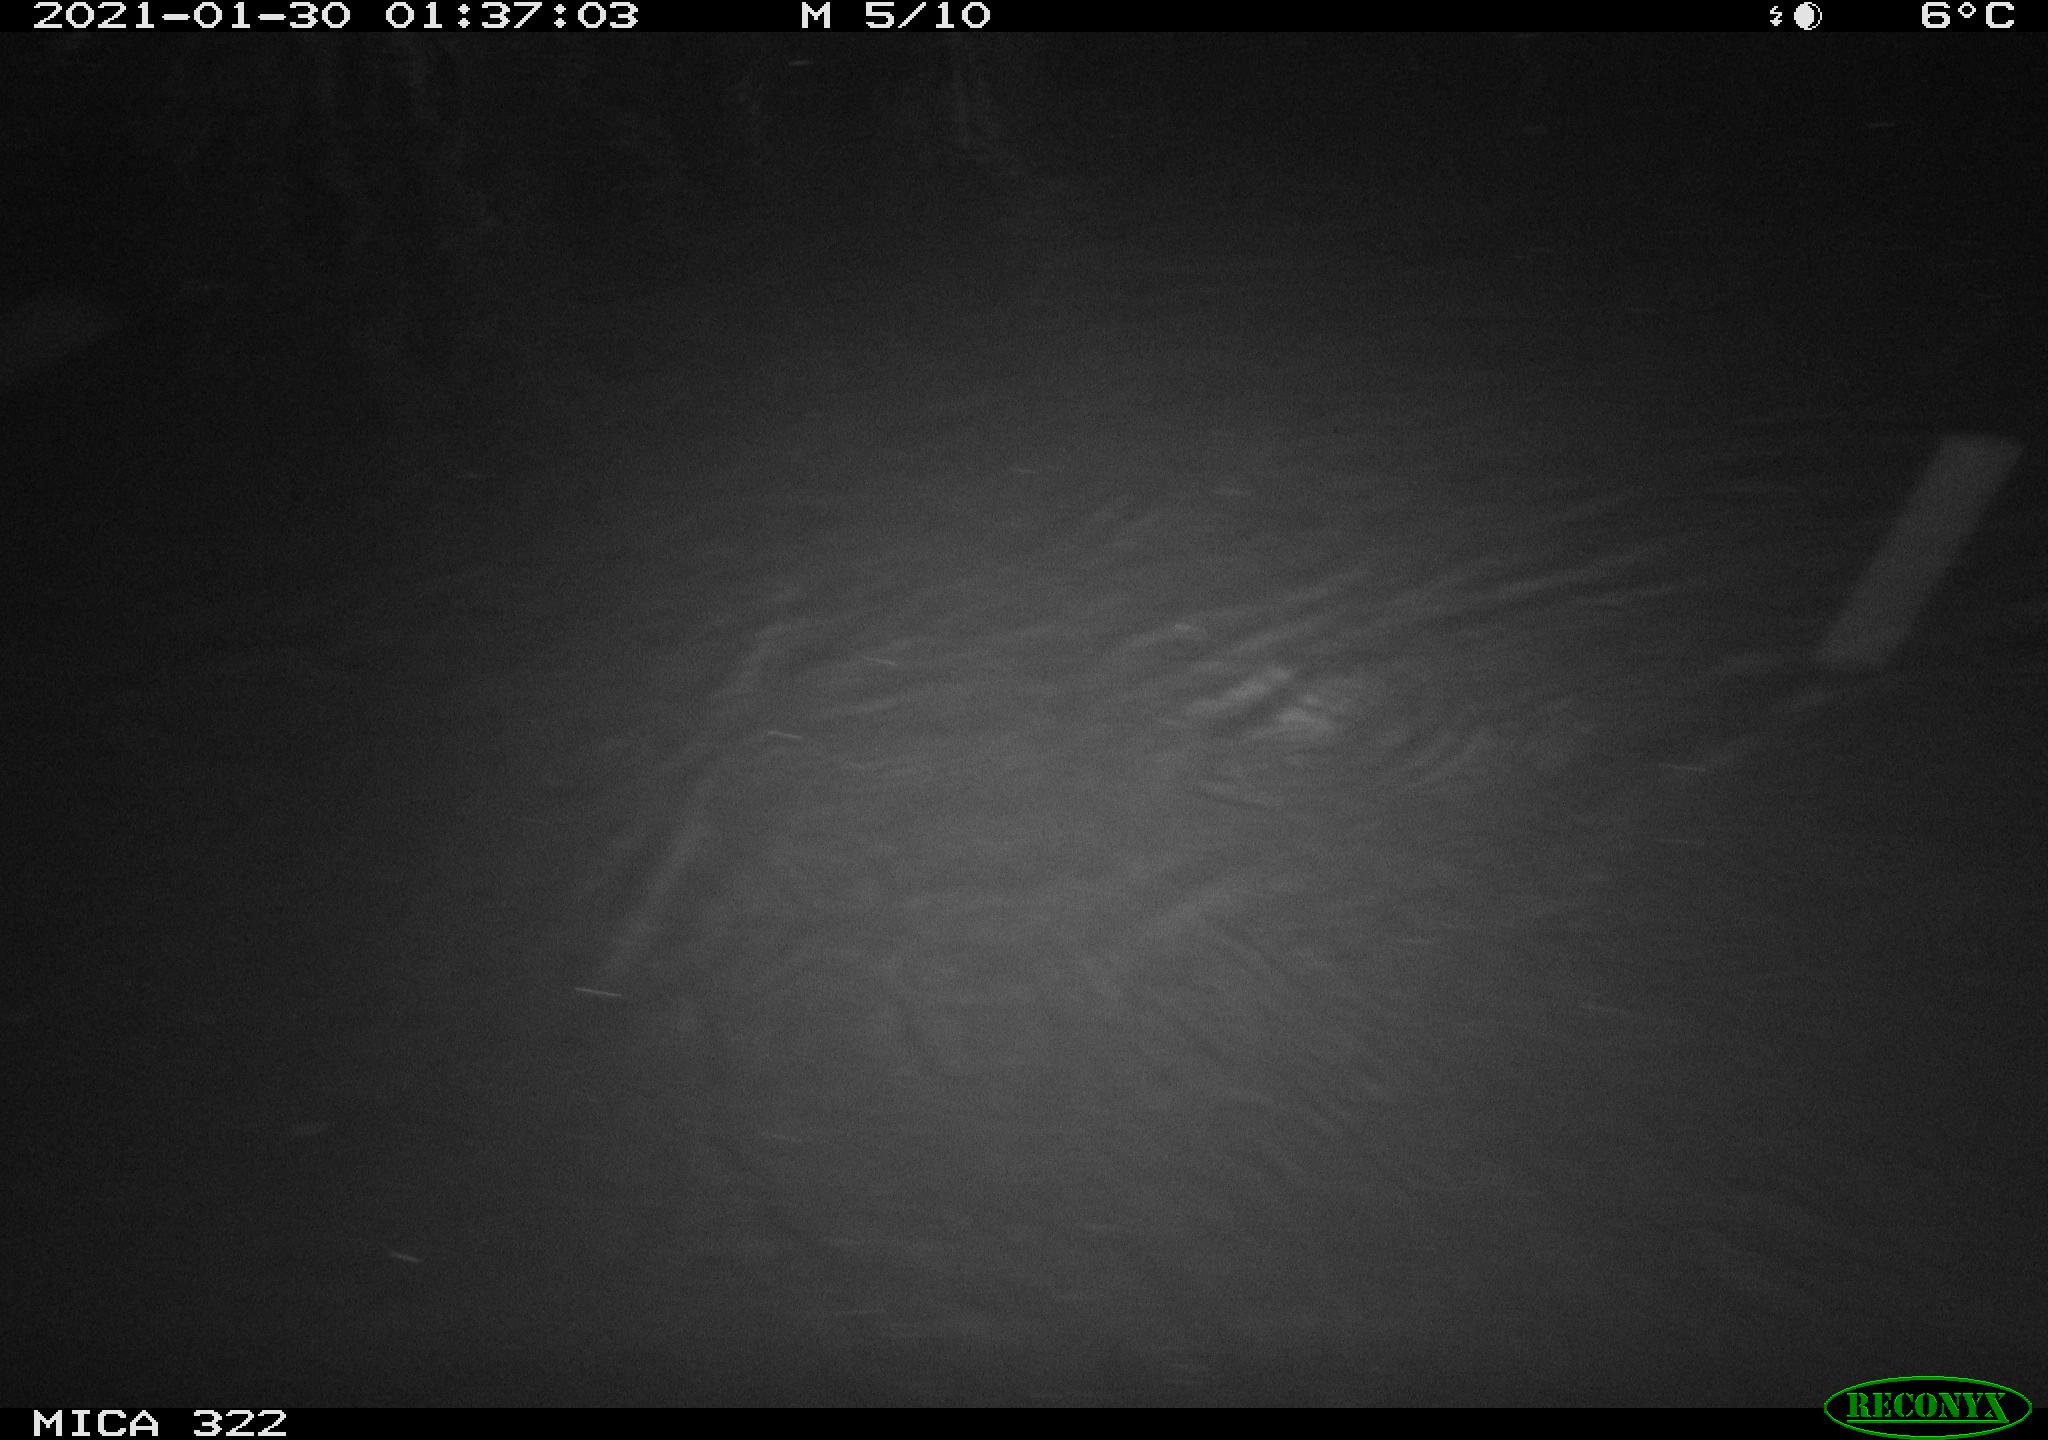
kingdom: Animalia
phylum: Chordata
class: Aves
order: Anseriformes
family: Anatidae
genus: Anas
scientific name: Anas platyrhynchos
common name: Mallard
